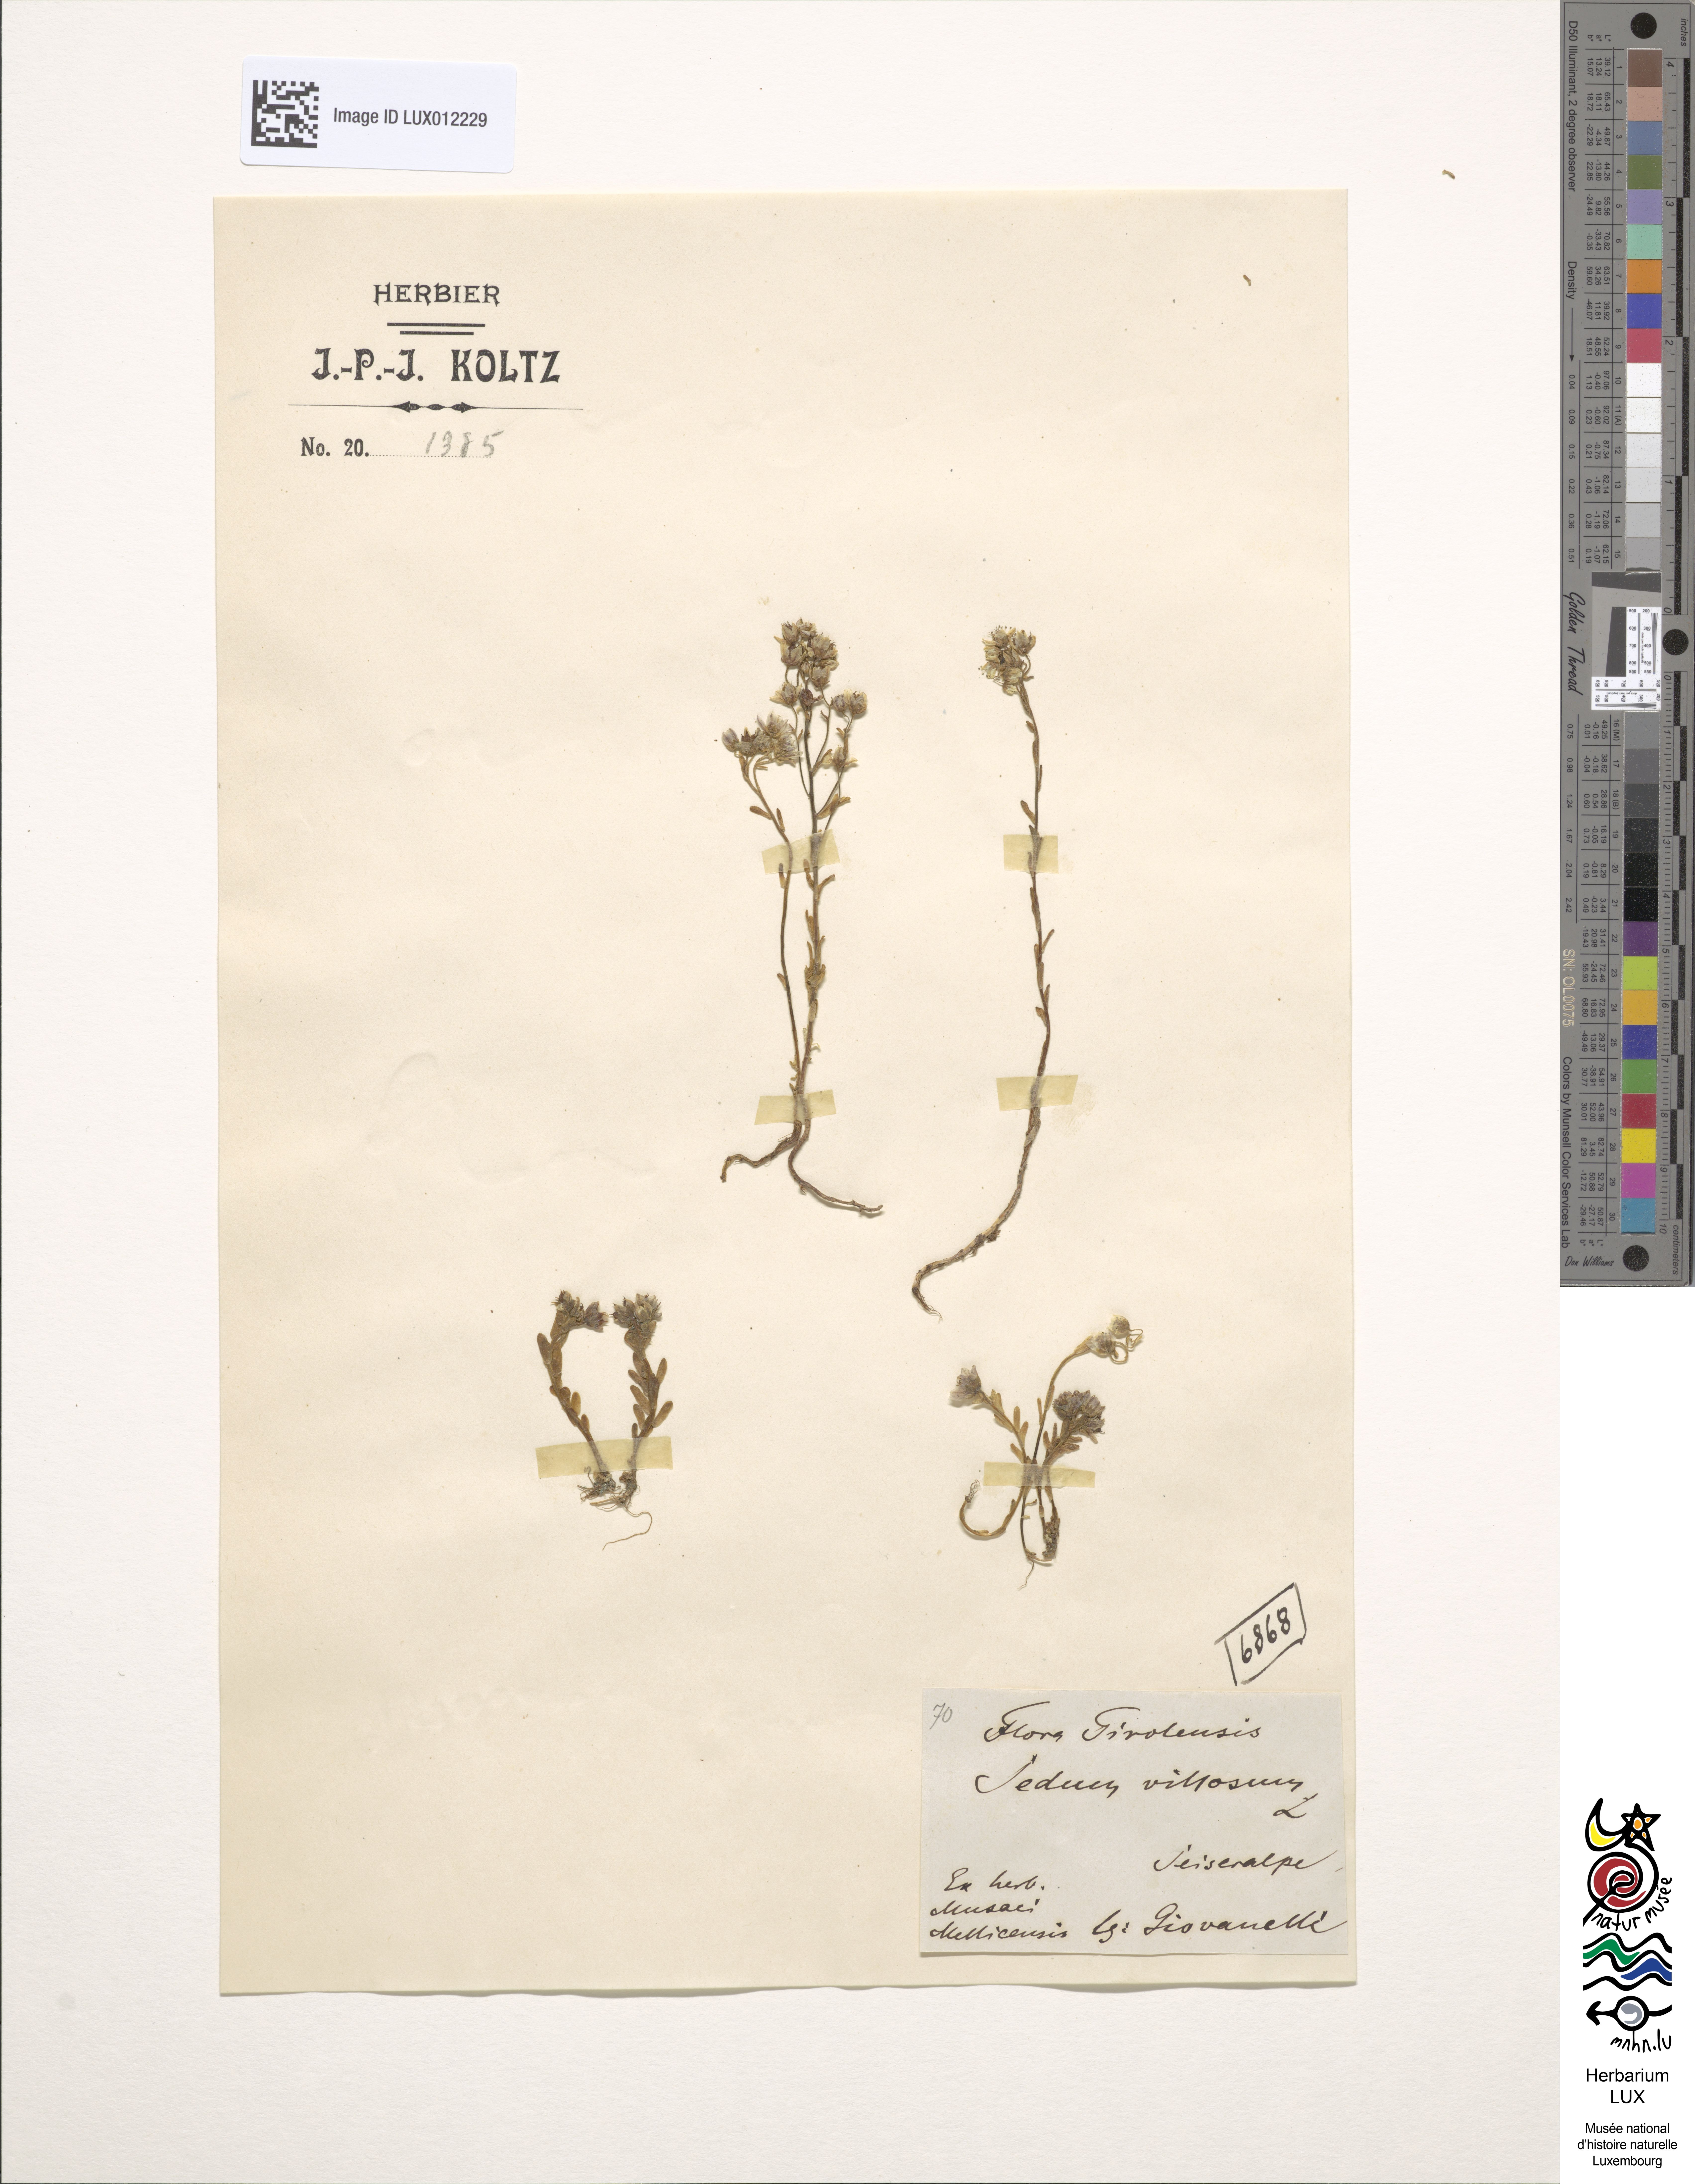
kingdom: Plantae
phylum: Tracheophyta
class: Magnoliopsida
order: Saxifragales
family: Crassulaceae
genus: Sedum
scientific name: Sedum villosum
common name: Hairy stonecrop
